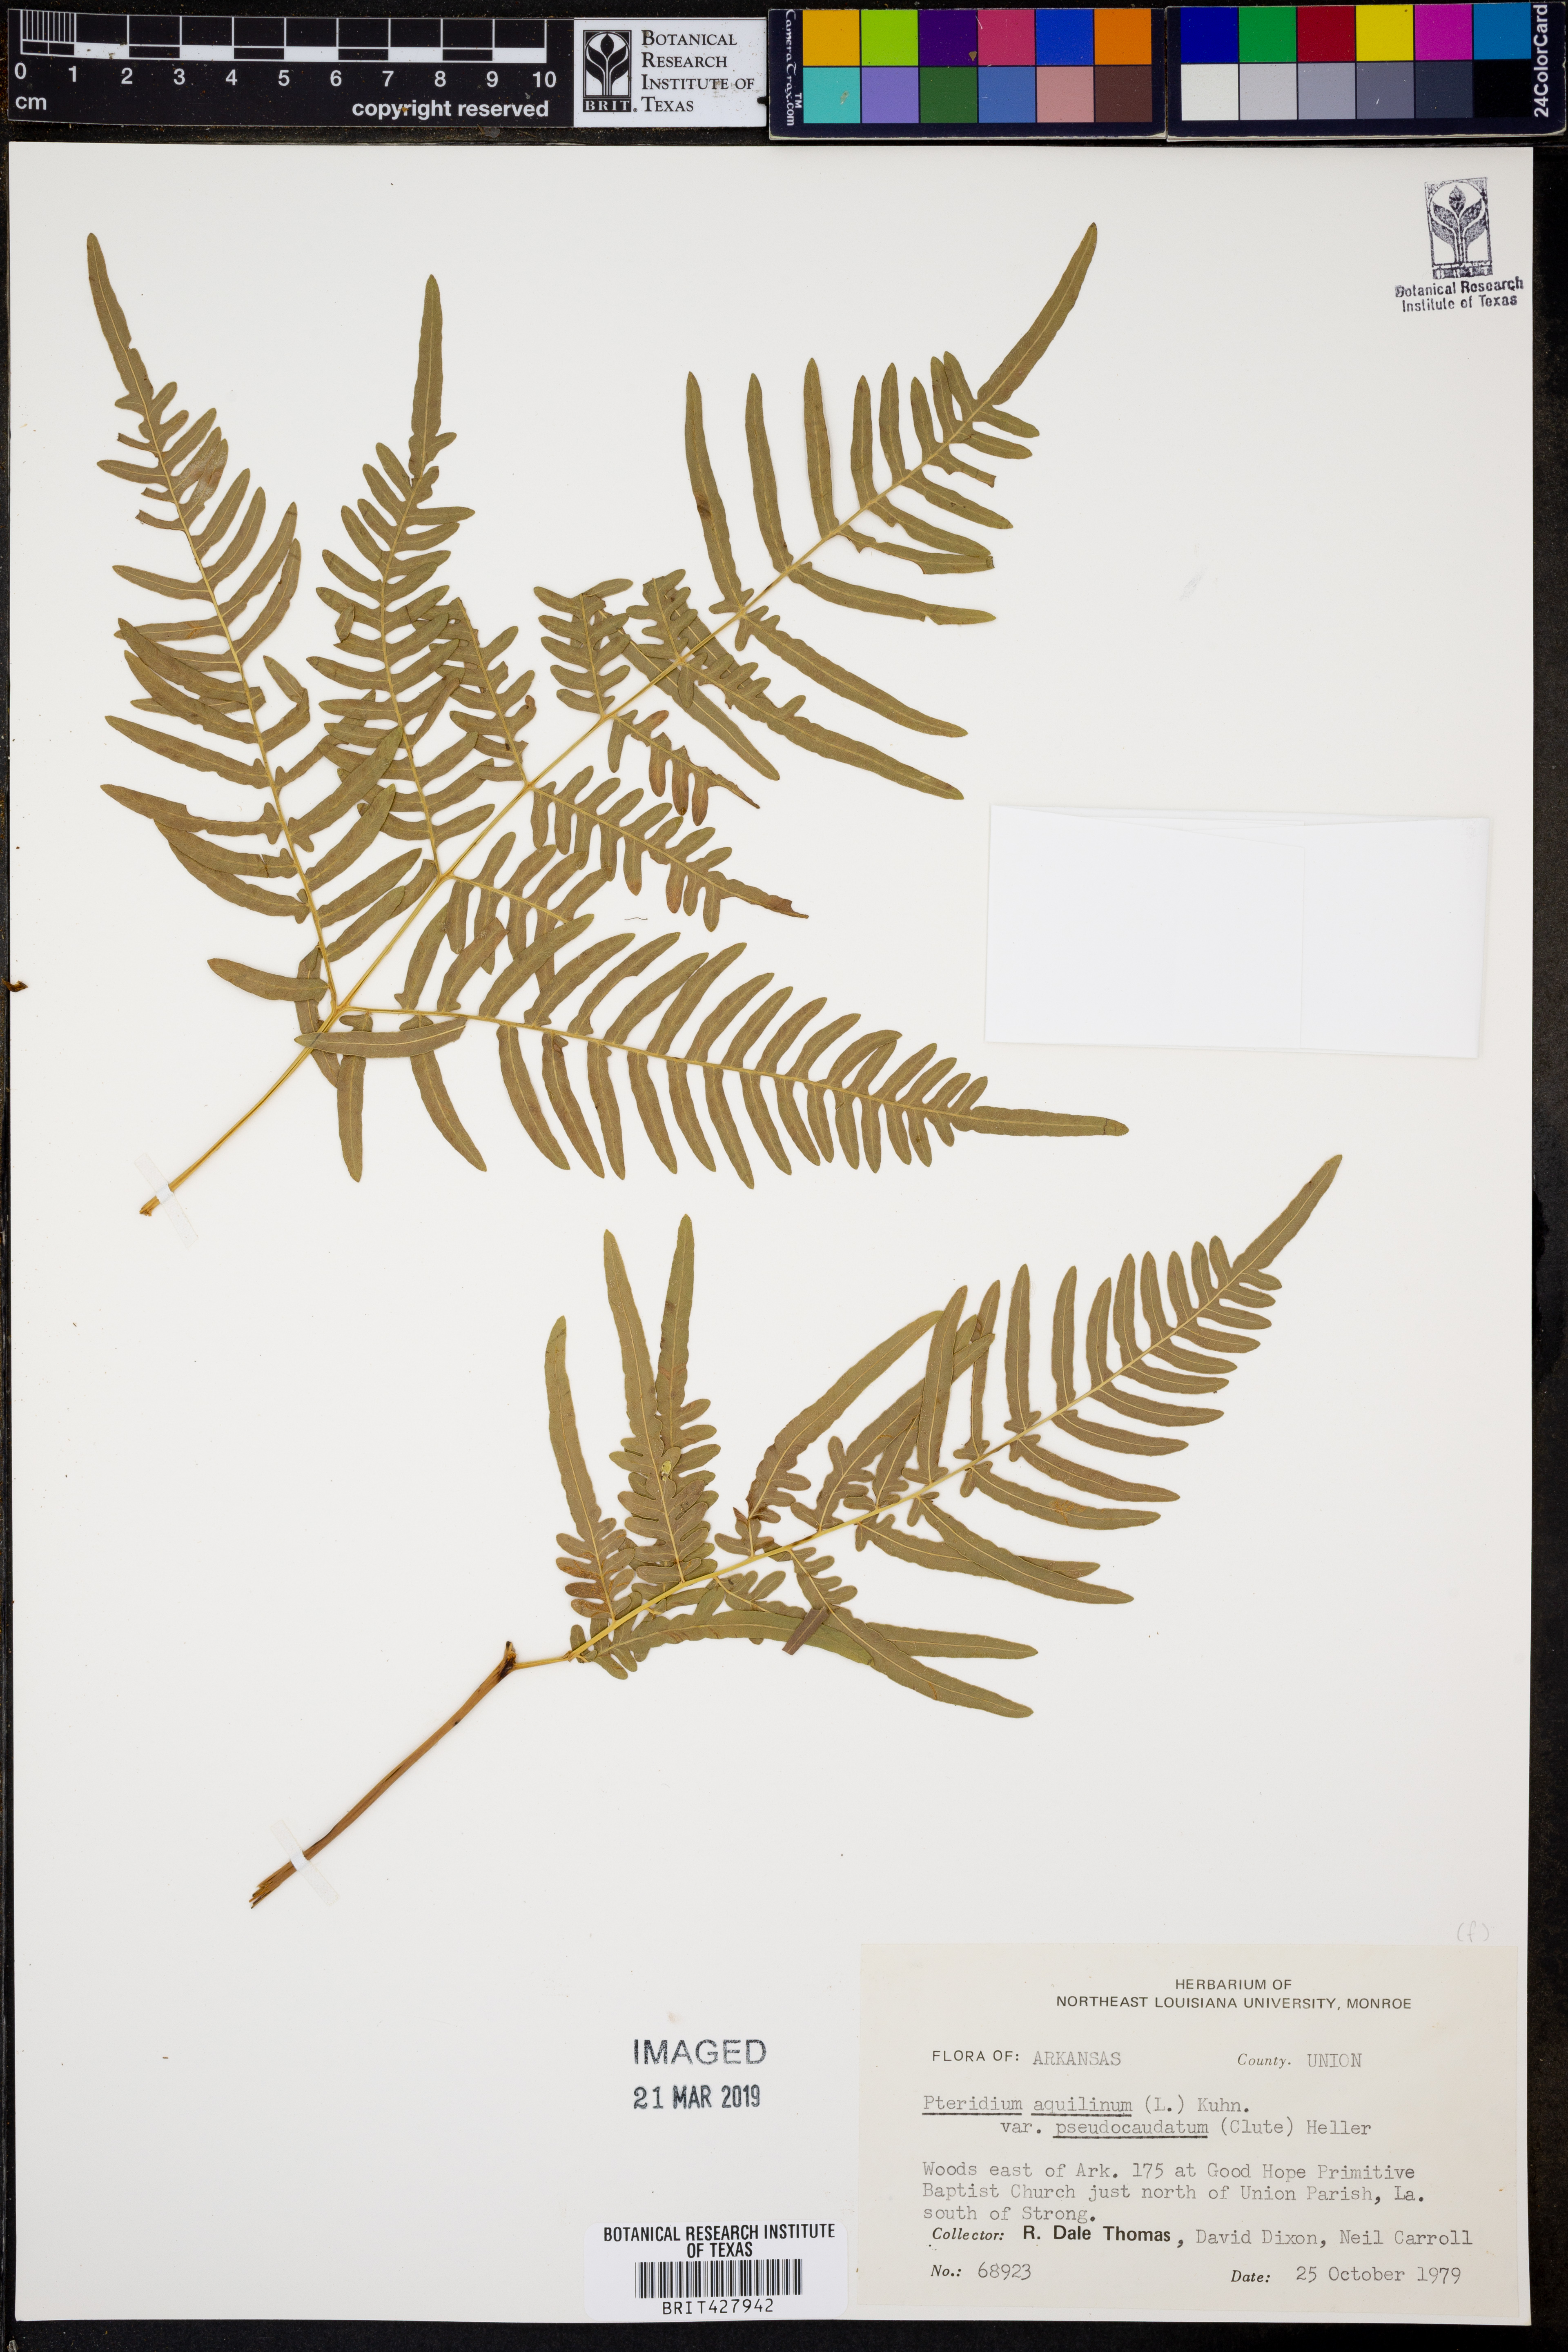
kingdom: Plantae
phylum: Tracheophyta
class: Polypodiopsida
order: Polypodiales
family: Dennstaedtiaceae
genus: Pteridium
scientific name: Pteridium aquilinum
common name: Bracken
